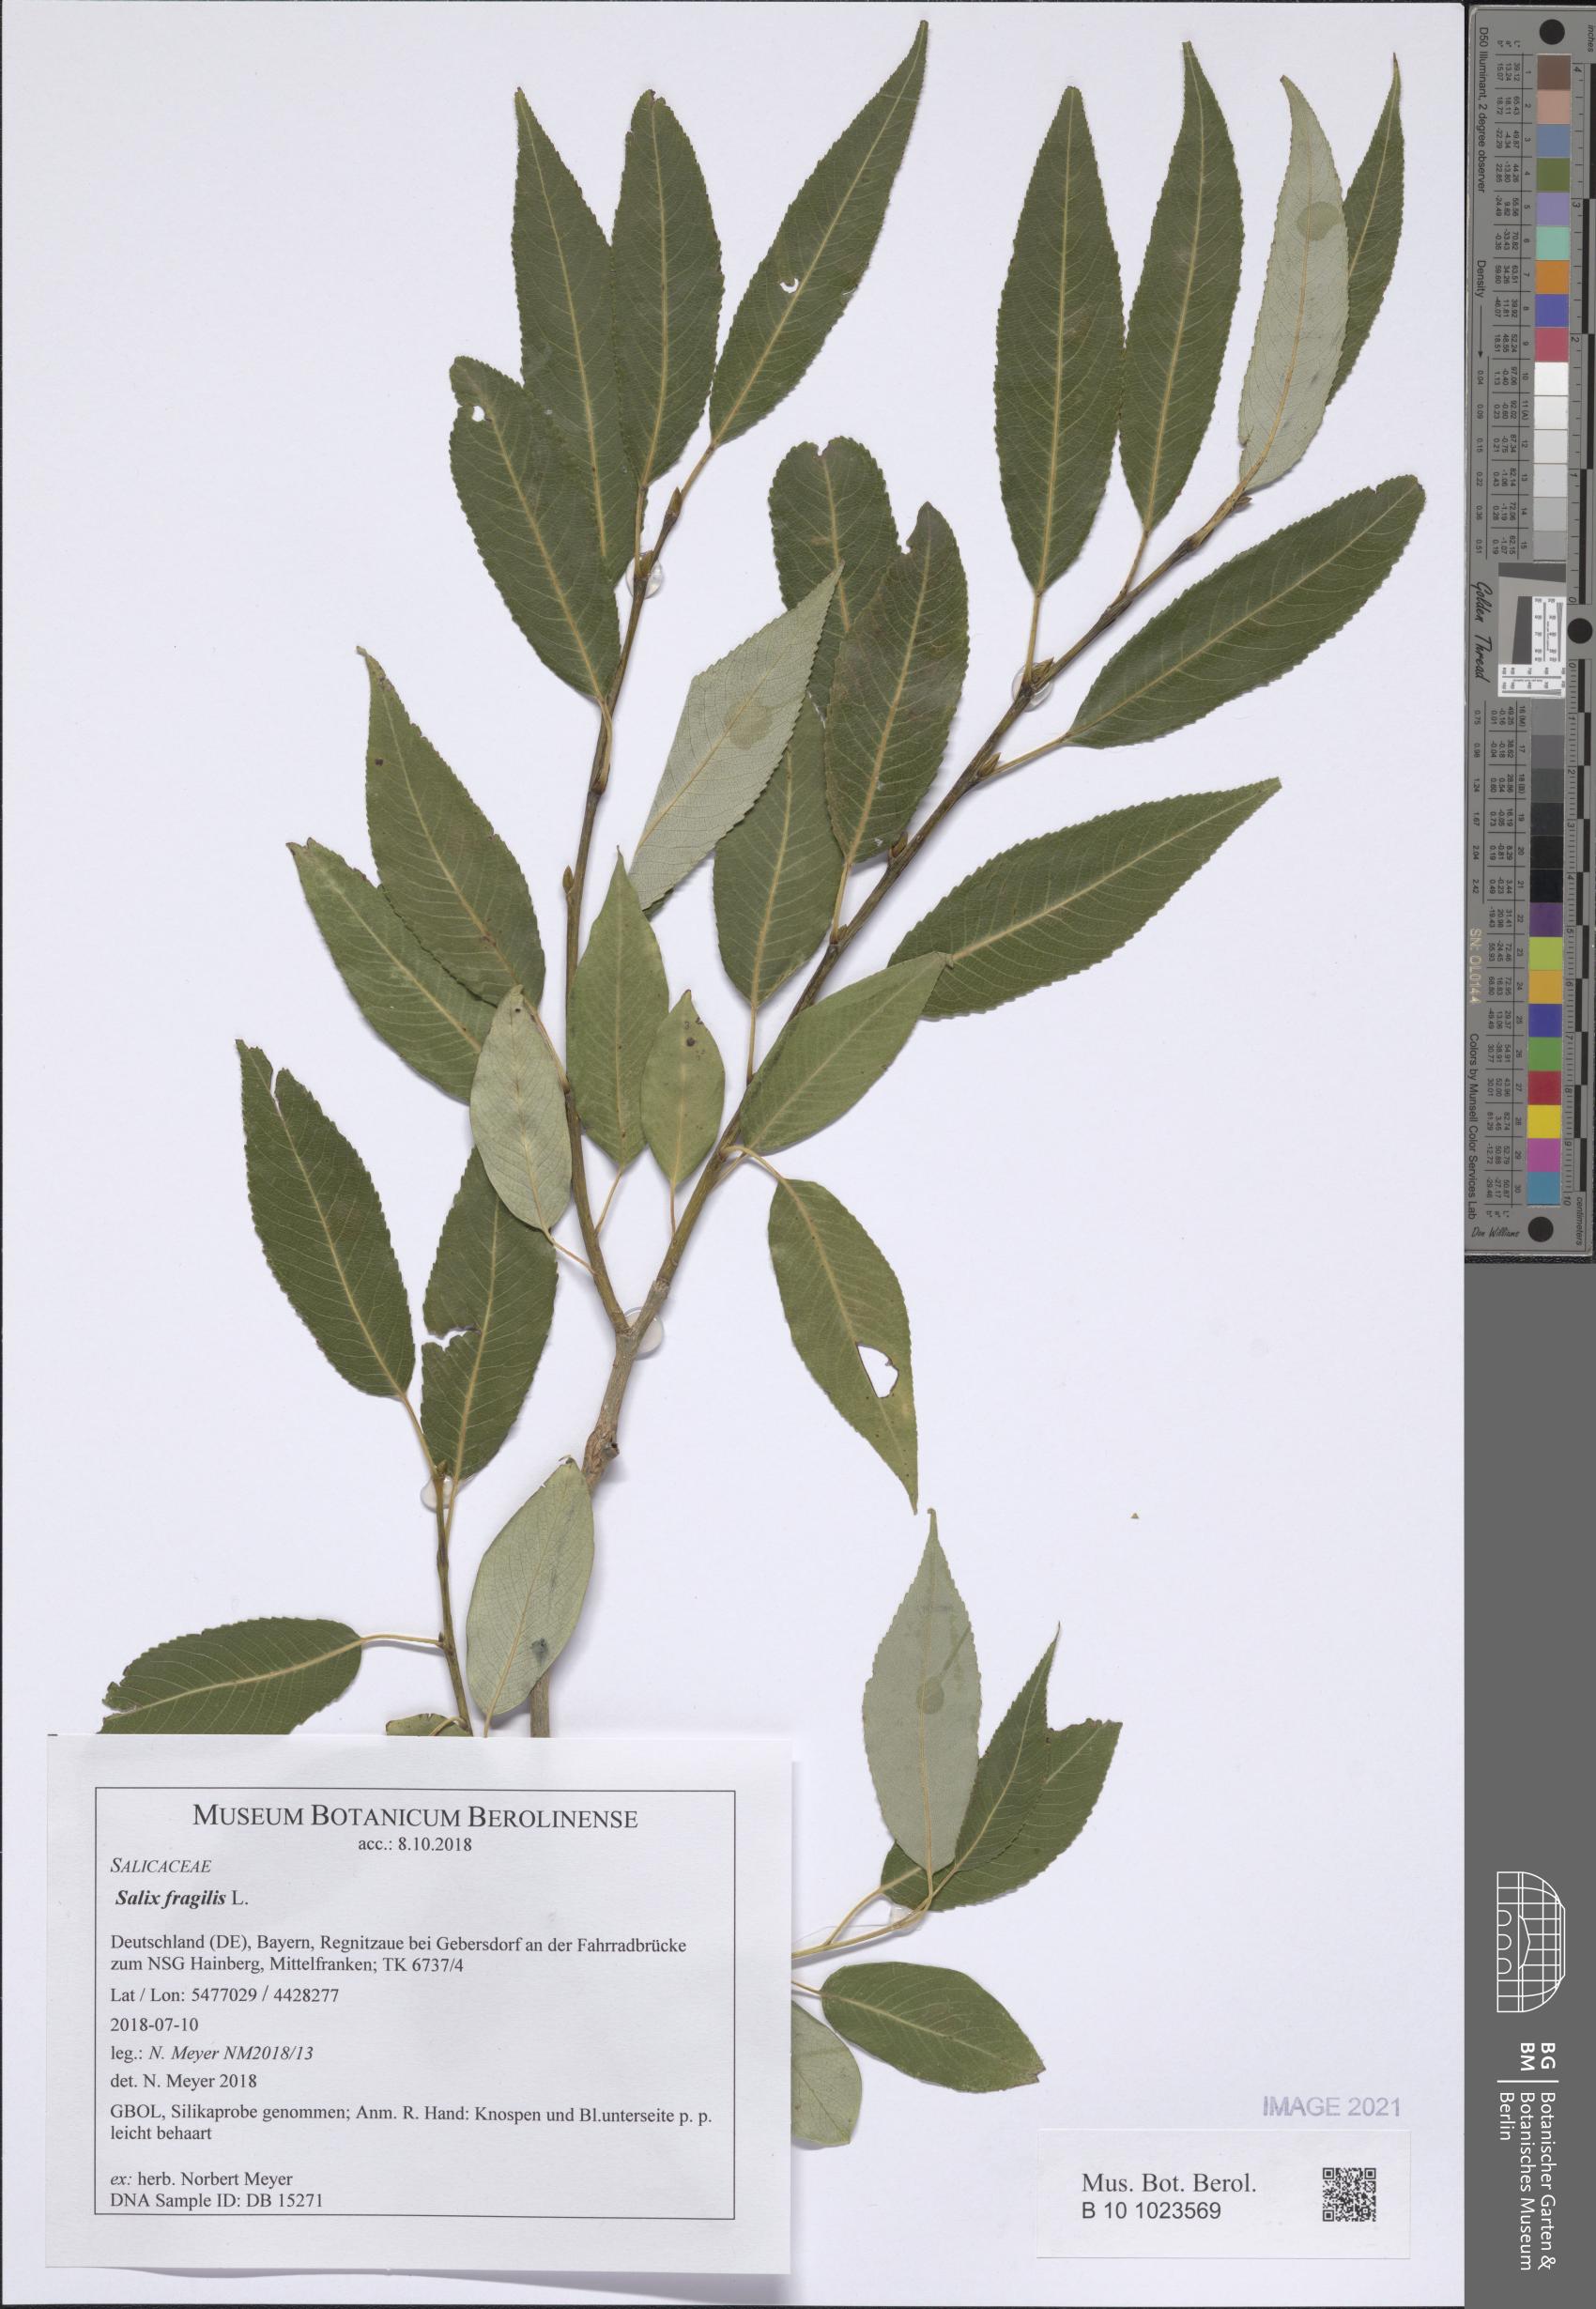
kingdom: Plantae
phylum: Tracheophyta
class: Magnoliopsida
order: Malpighiales
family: Salicaceae
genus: Salix
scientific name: Salix fragilis
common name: Crack willow
